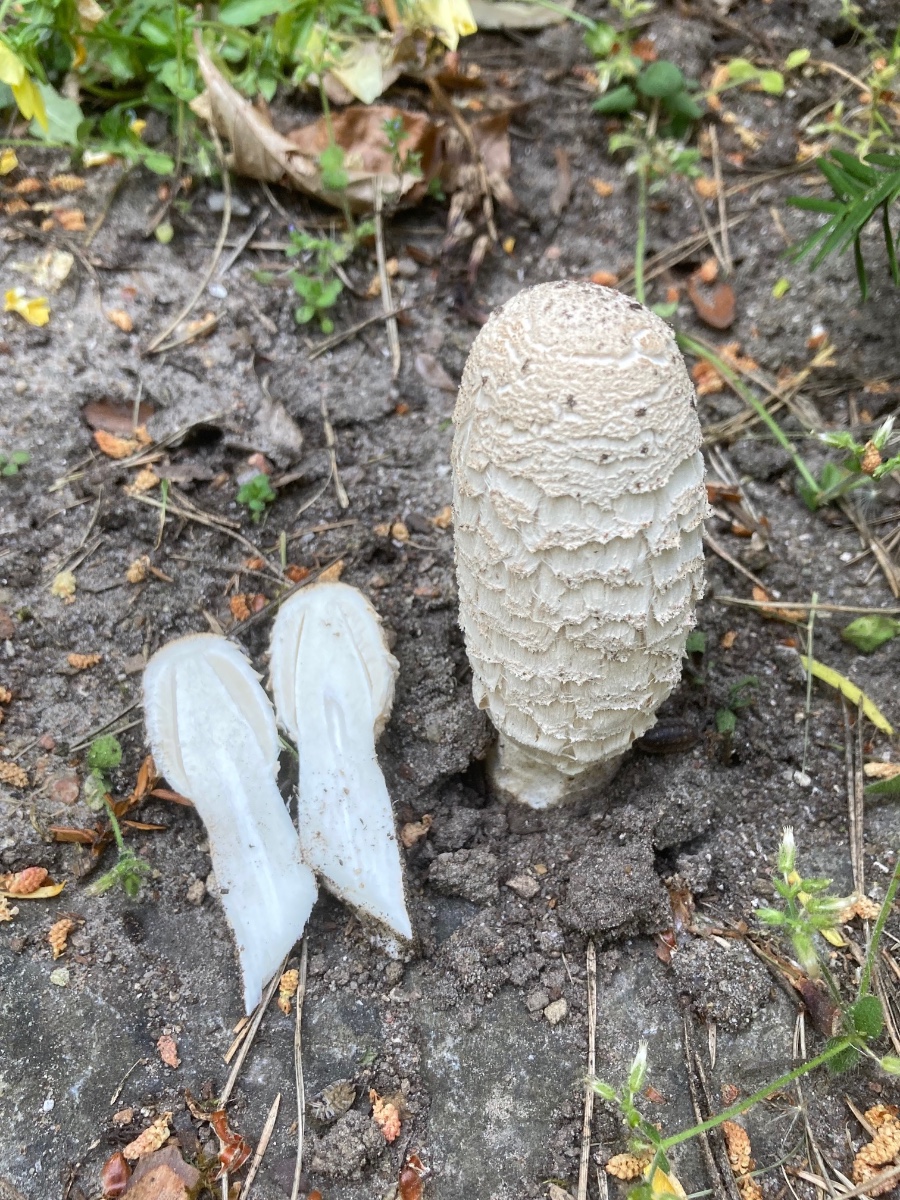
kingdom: Fungi
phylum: Basidiomycota
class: Agaricomycetes
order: Agaricales
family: Agaricaceae
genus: Coprinus
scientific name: Coprinus comatus
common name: stor parykhat
